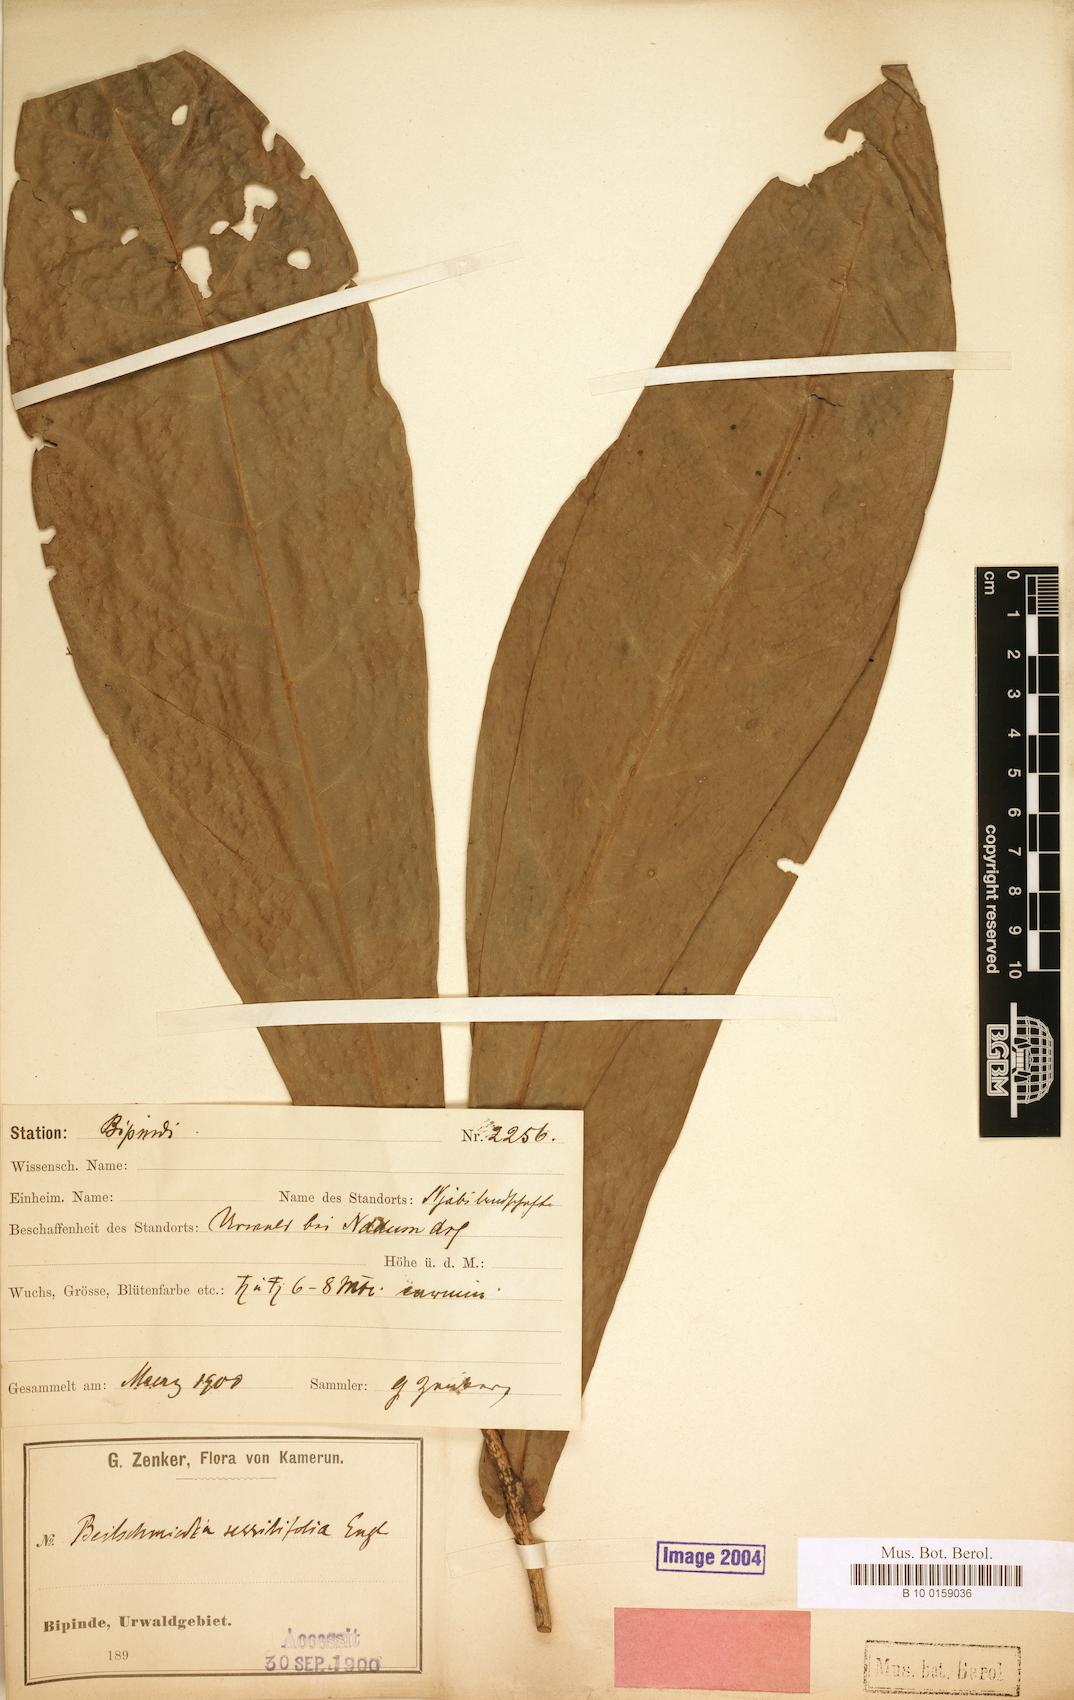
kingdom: Plantae
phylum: Tracheophyta
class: Magnoliopsida
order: Laurales
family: Lauraceae
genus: Beilschmiedia
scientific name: Beilschmiedia sessilifolia
